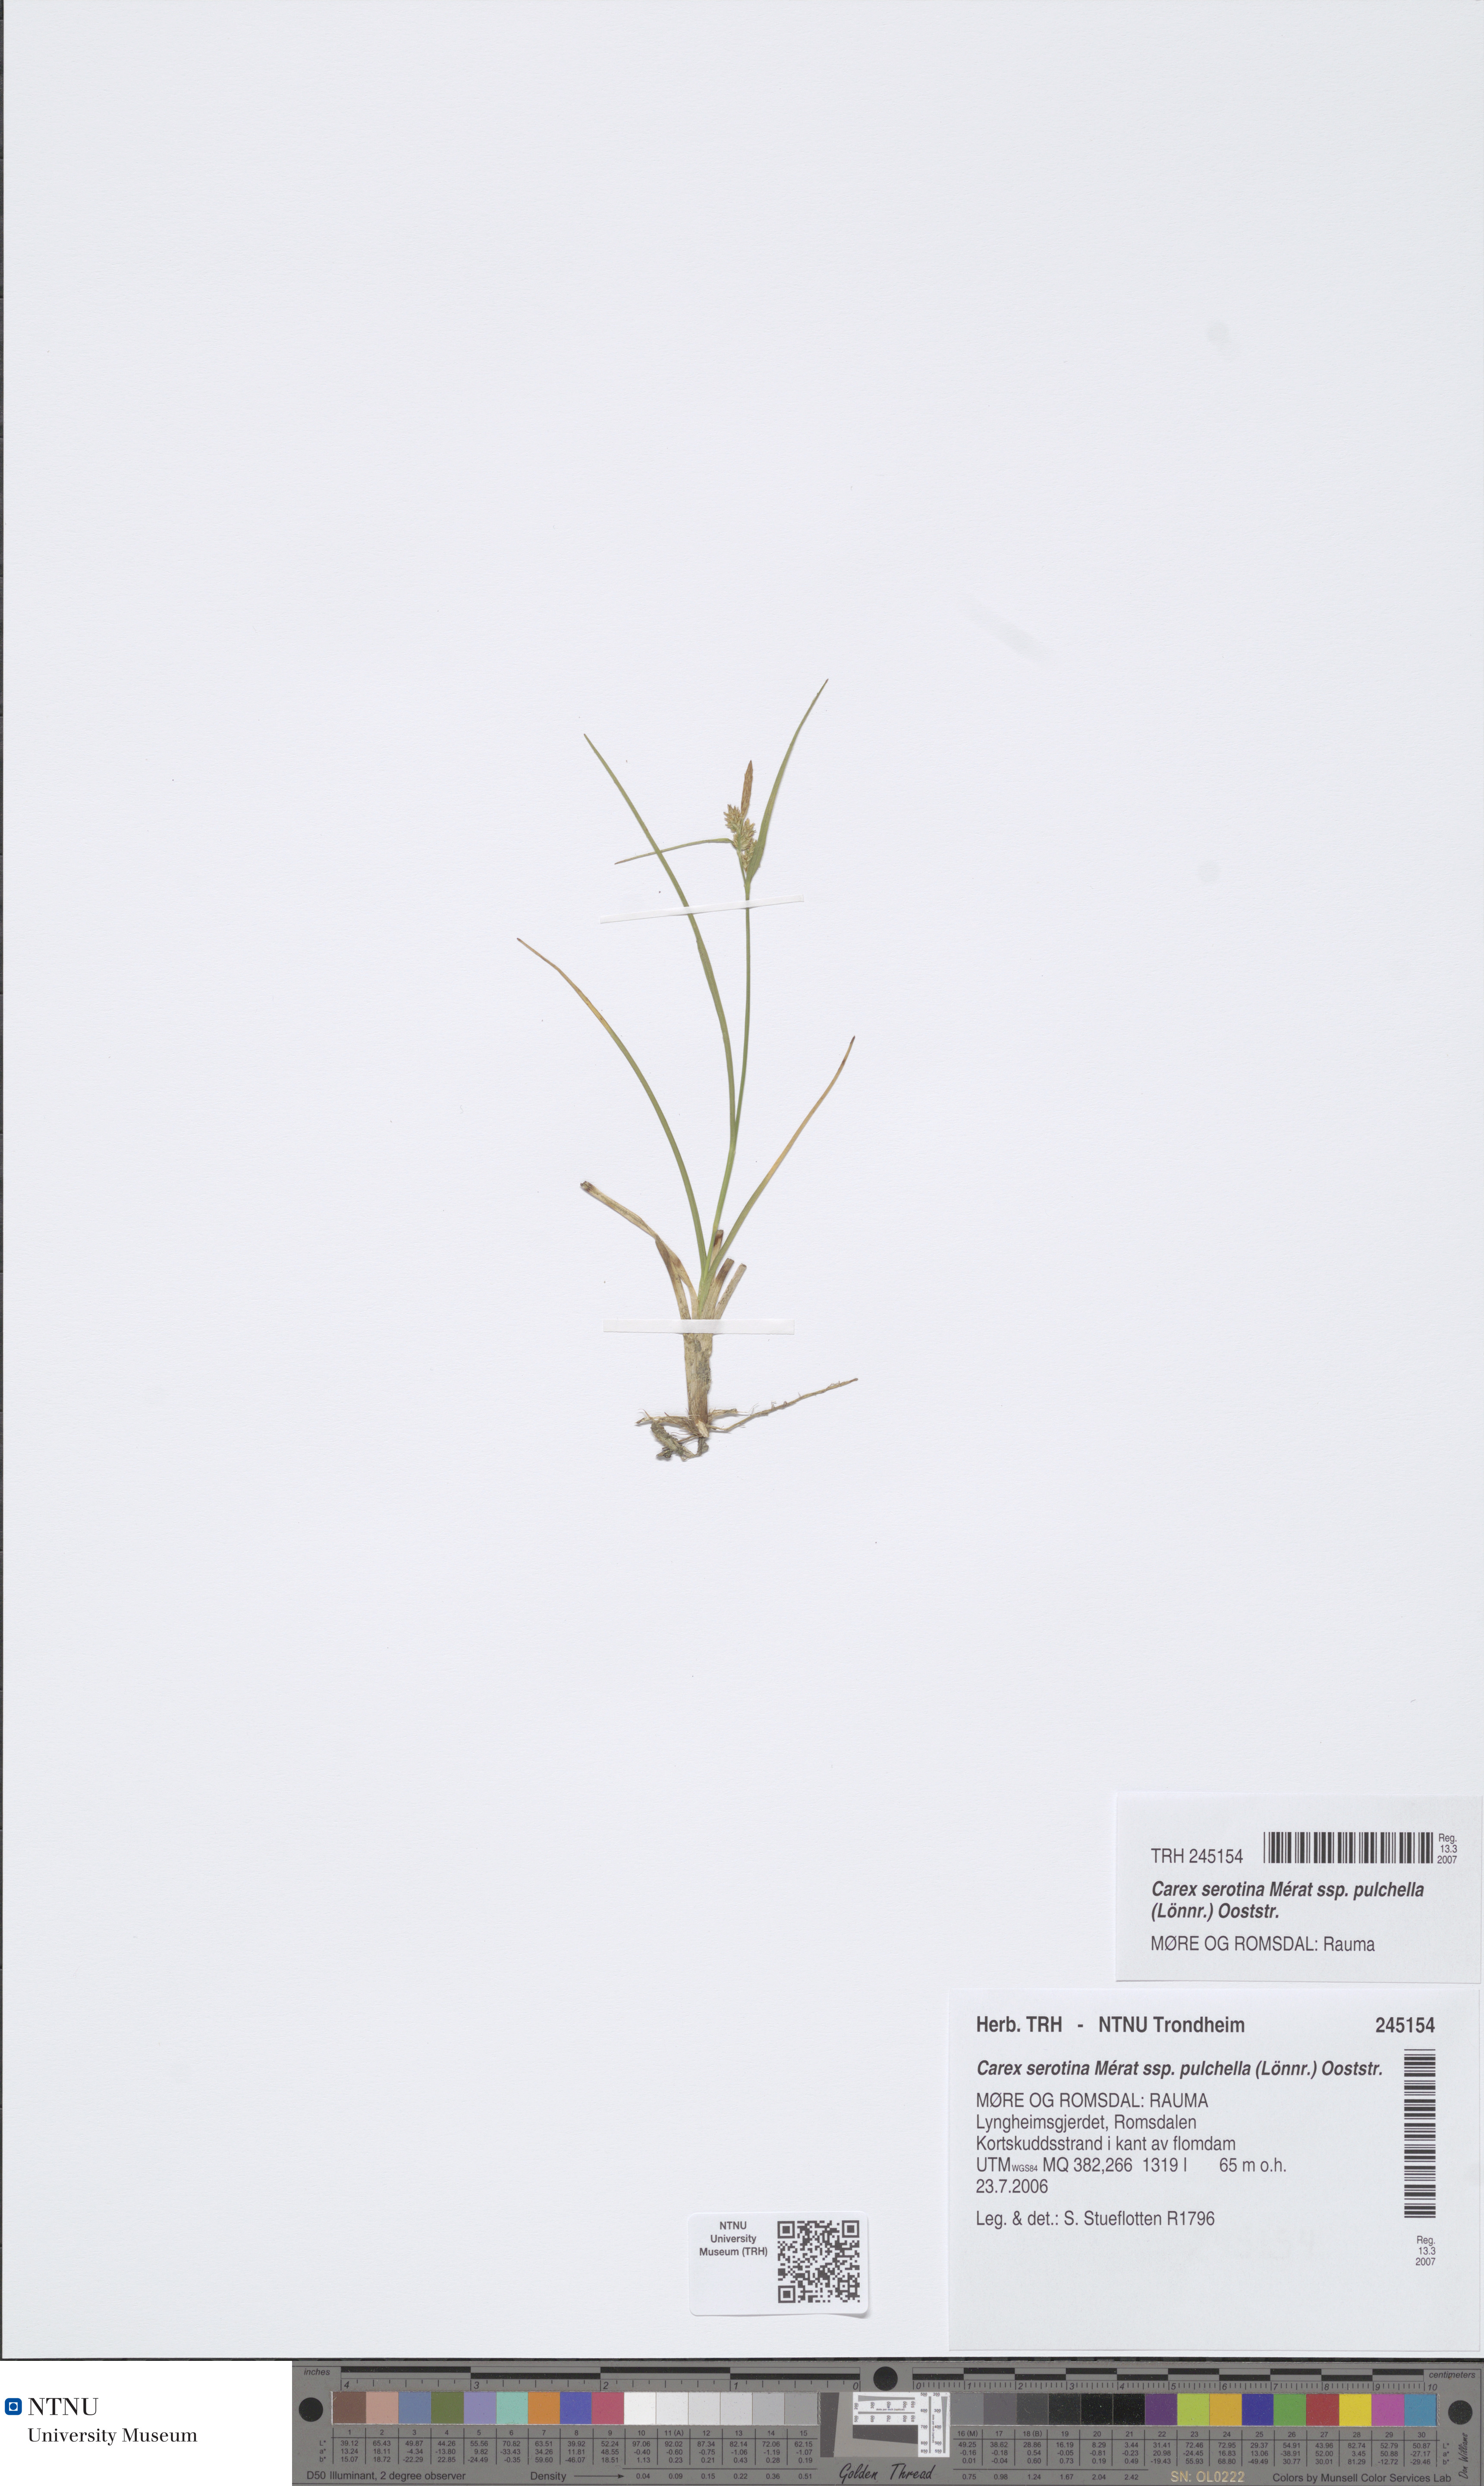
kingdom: Plantae
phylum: Tracheophyta
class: Liliopsida
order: Poales
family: Cyperaceae
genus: Carex
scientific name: Carex oederi
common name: Common & small-fruited yellow-sedge
